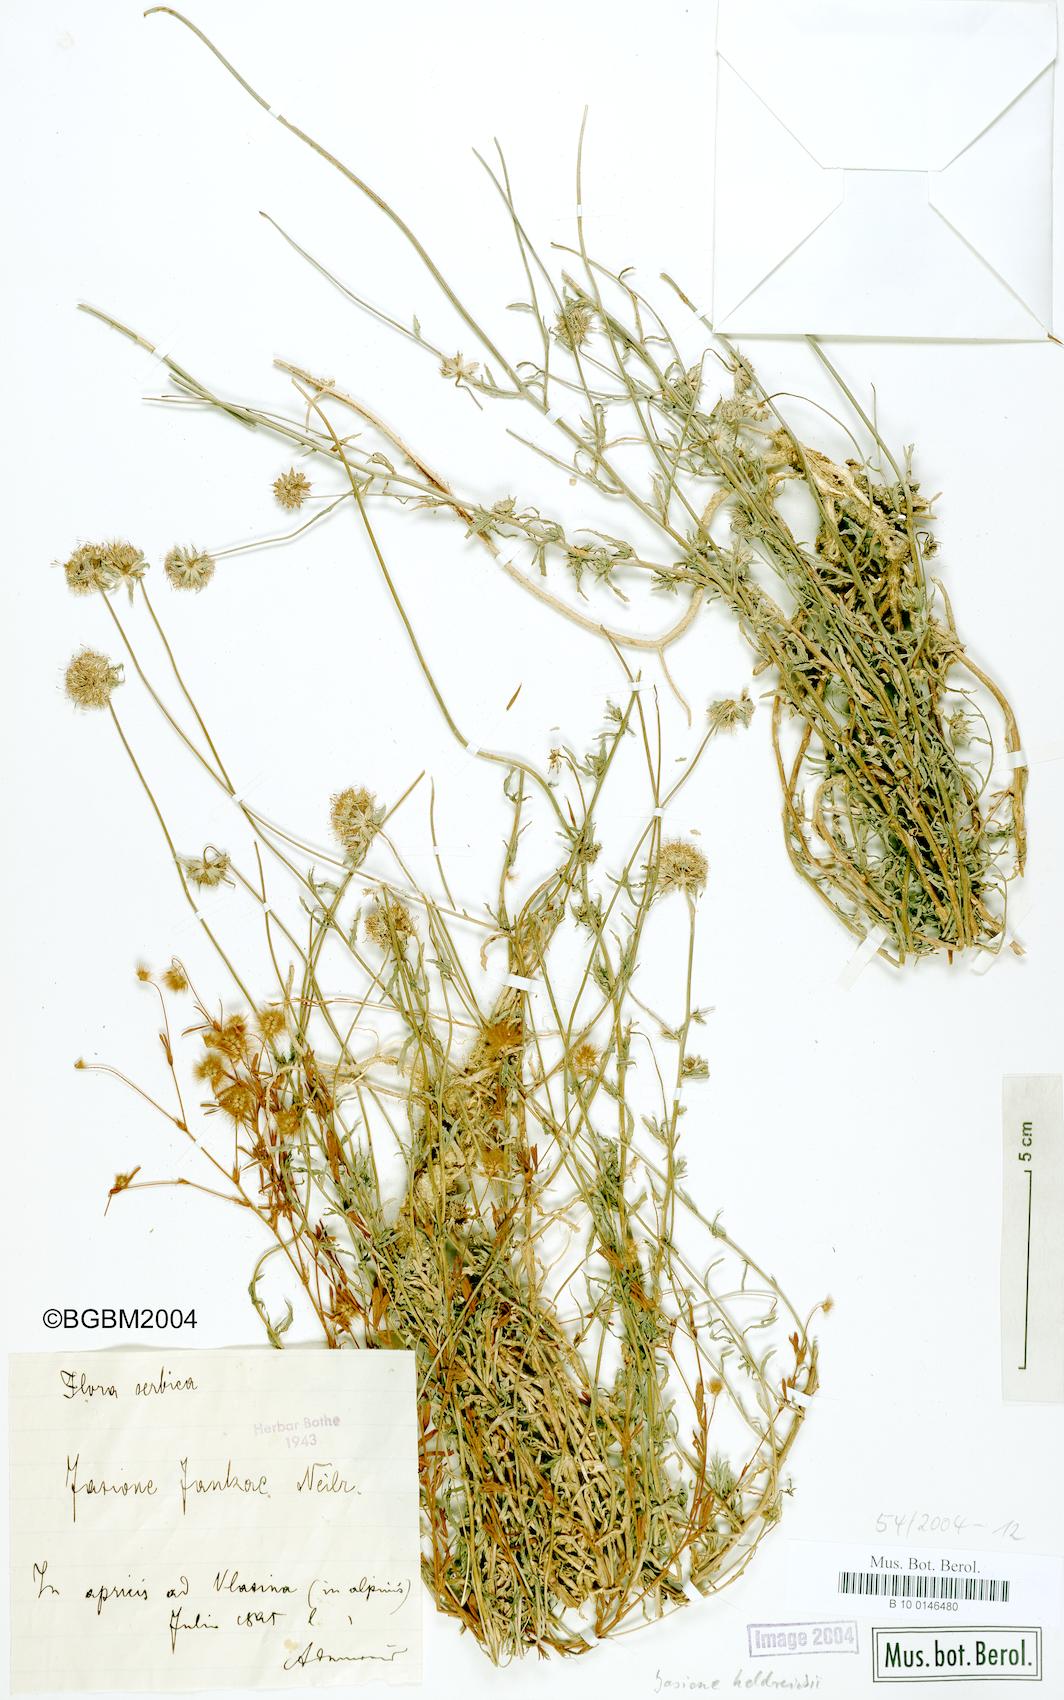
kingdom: Plantae
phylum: Tracheophyta
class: Magnoliopsida
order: Asterales
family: Campanulaceae
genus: Jasione
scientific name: Jasione heldreichii
